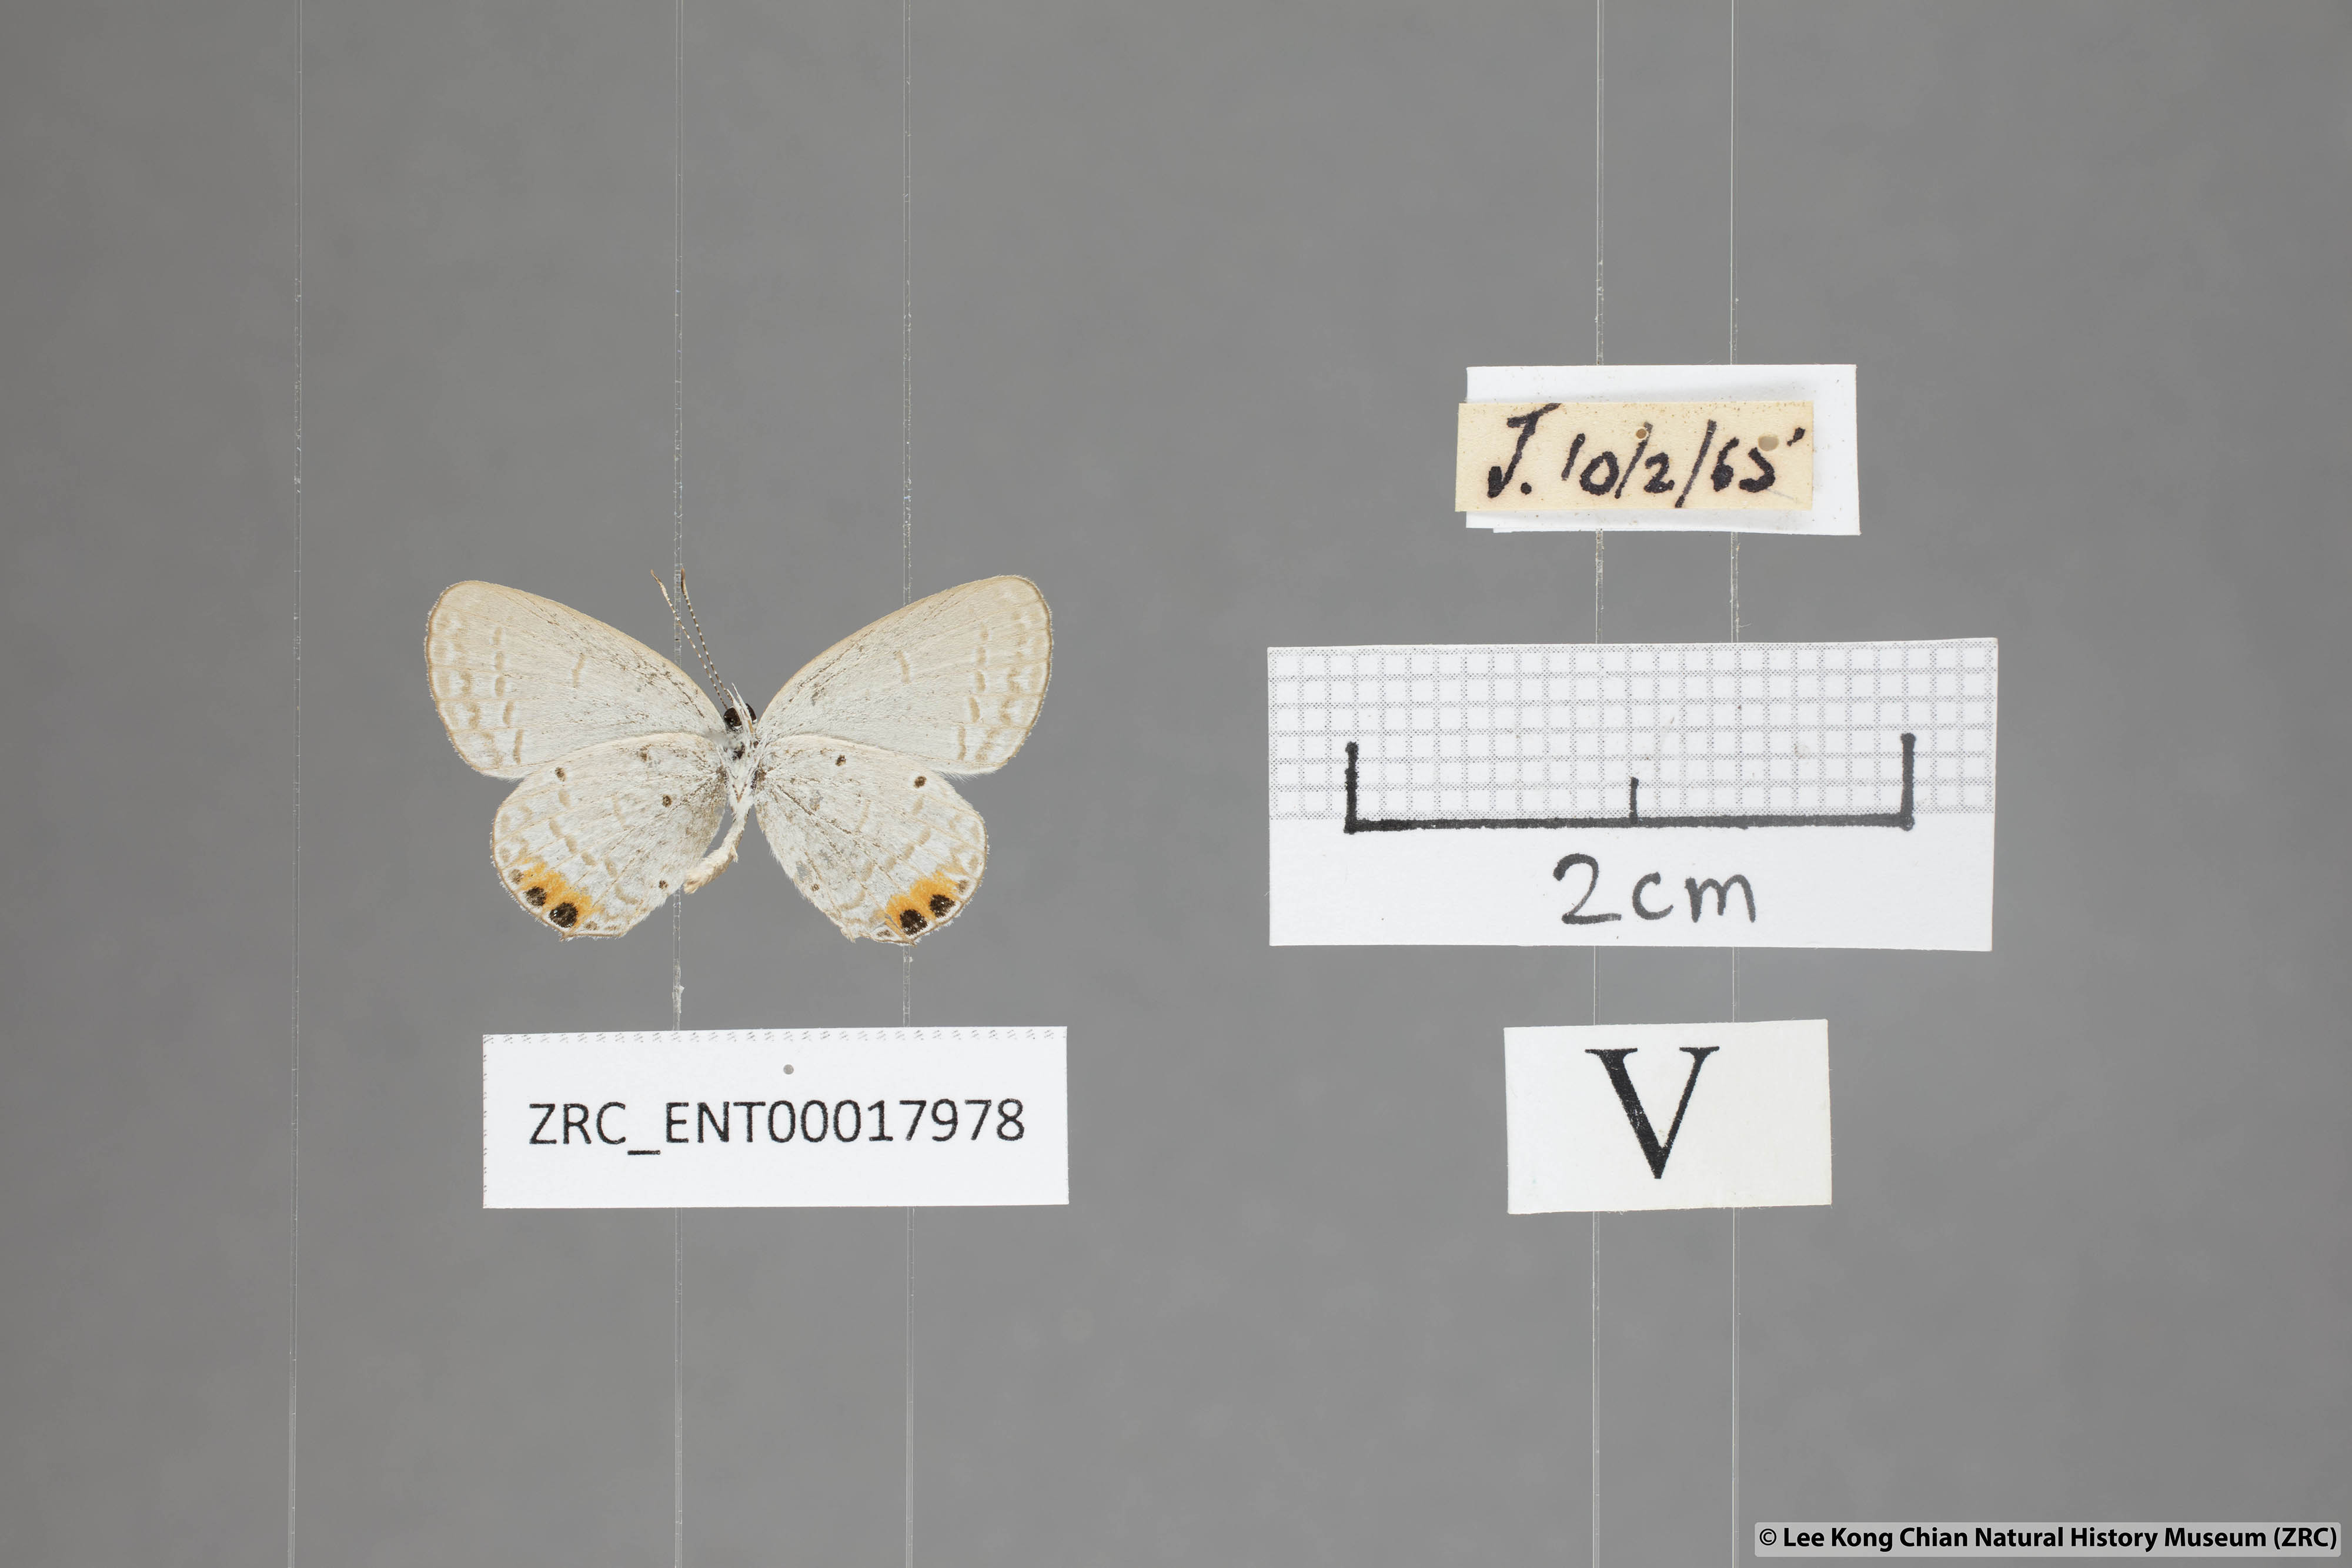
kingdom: Animalia
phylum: Arthropoda
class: Insecta
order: Lepidoptera
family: Lycaenidae
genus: Everes
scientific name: Everes lacturnus
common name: Orange-tipped pea-blue
